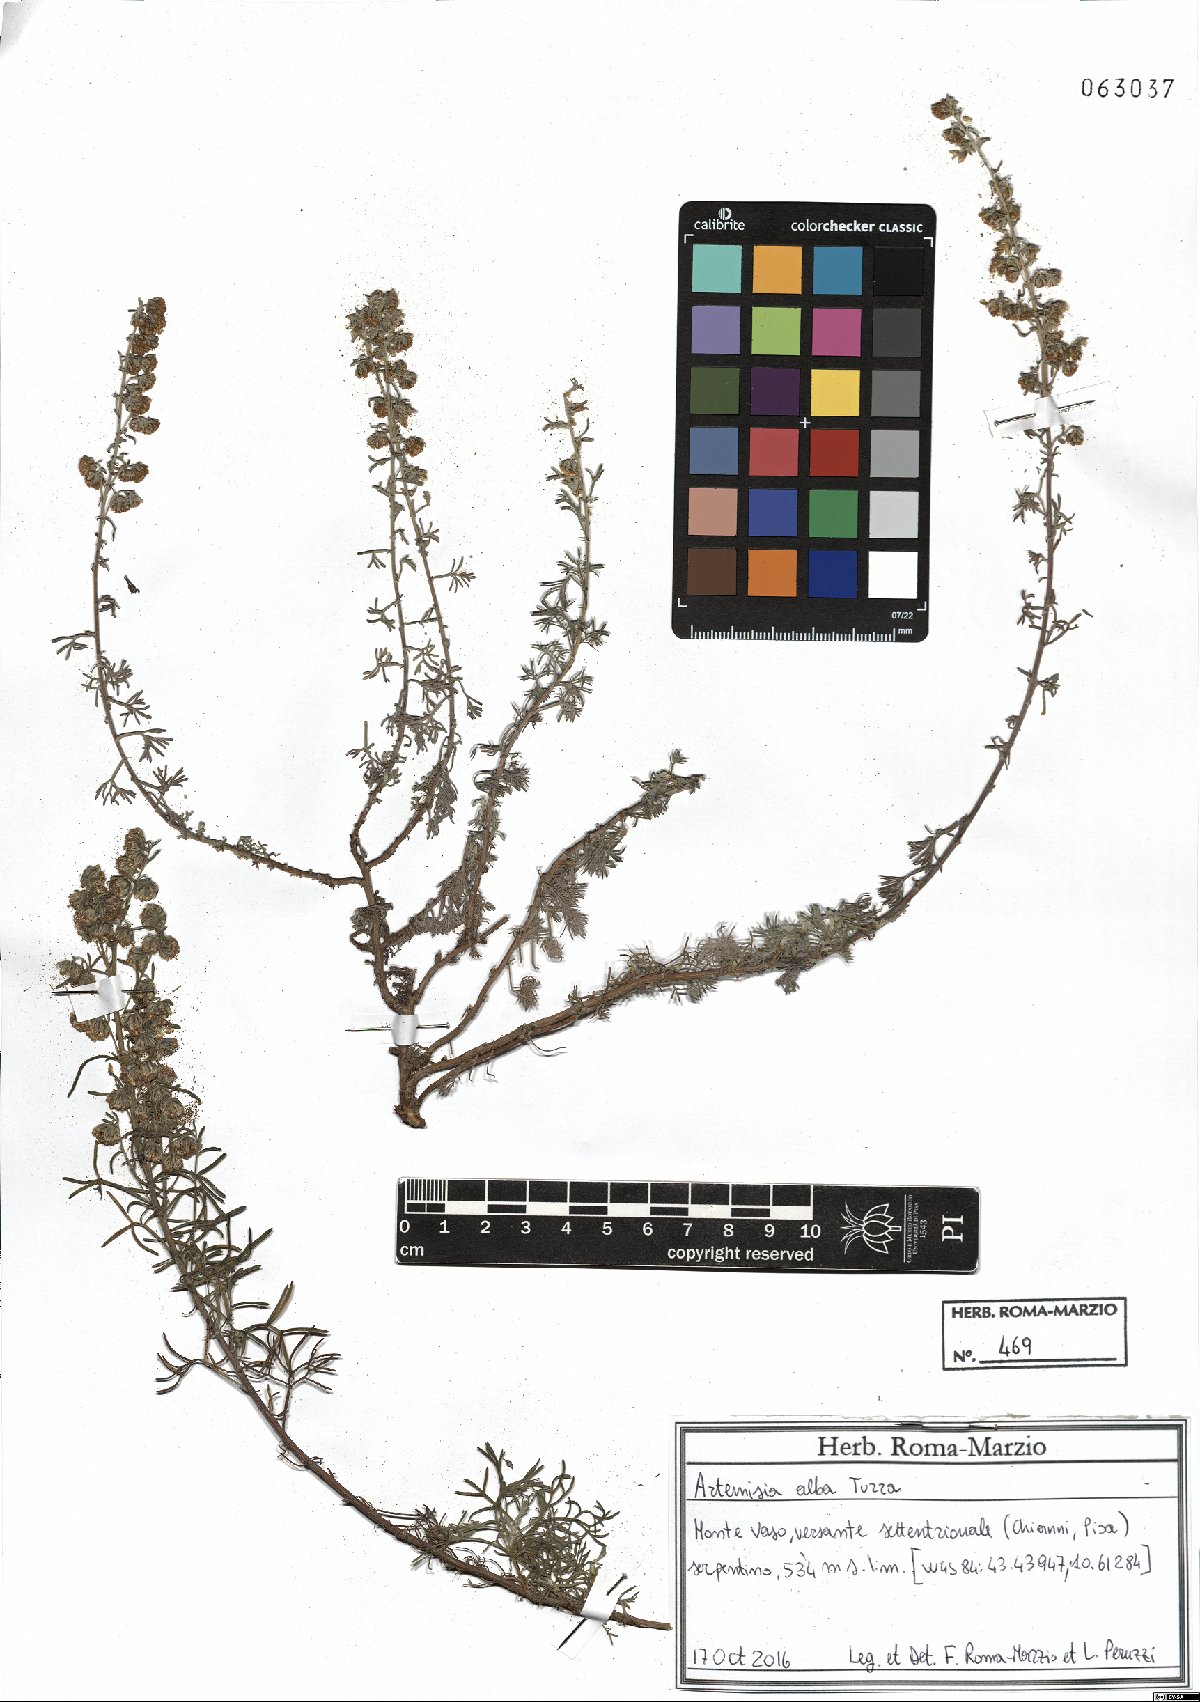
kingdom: Plantae
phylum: Tracheophyta
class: Magnoliopsida
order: Asterales
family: Asteraceae
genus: Artemisia
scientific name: Artemisia alba
